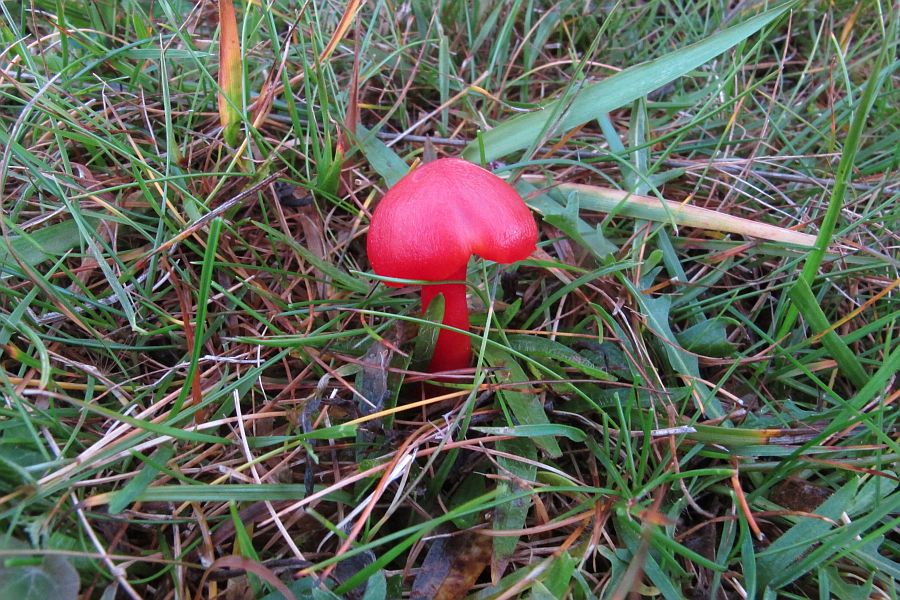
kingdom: Fungi
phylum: Basidiomycota
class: Agaricomycetes
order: Agaricales
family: Hygrophoraceae
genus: Hygrocybe
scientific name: Hygrocybe phaeococcinea
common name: sortdugget vokshat
